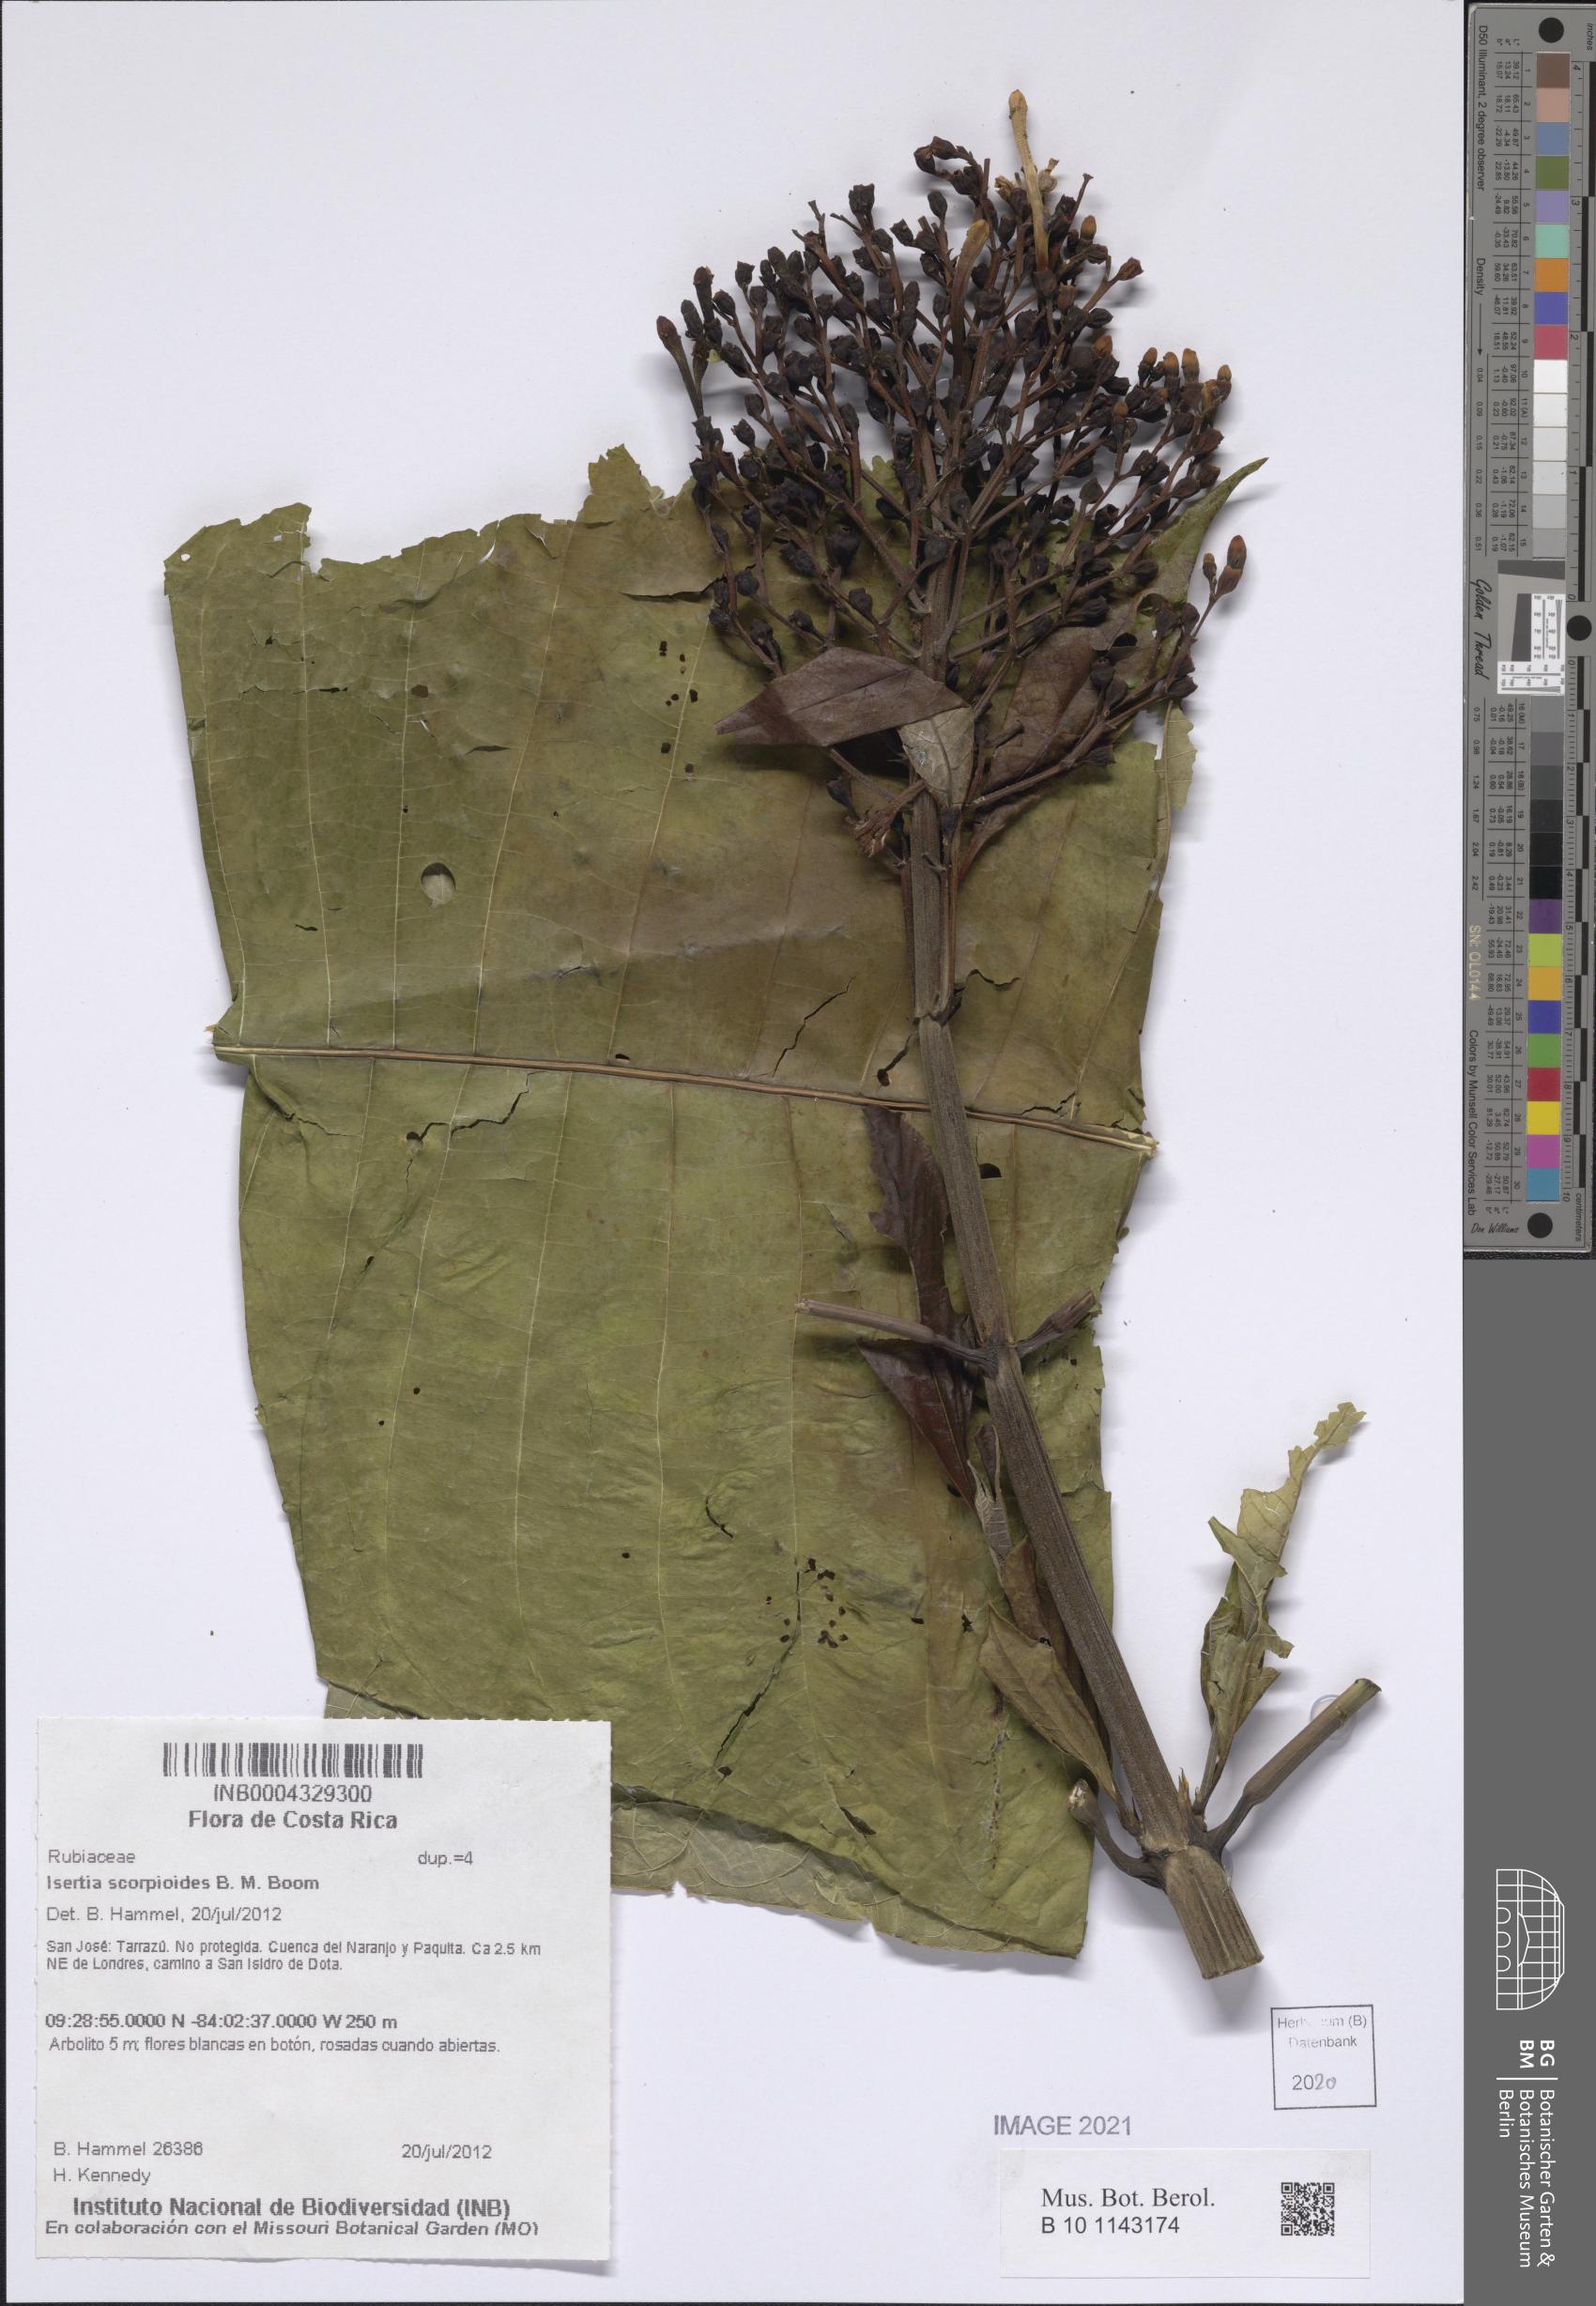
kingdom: Plantae
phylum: Tracheophyta
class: Magnoliopsida
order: Gentianales
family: Rubiaceae
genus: Isertia
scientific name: Isertia scorpioides
